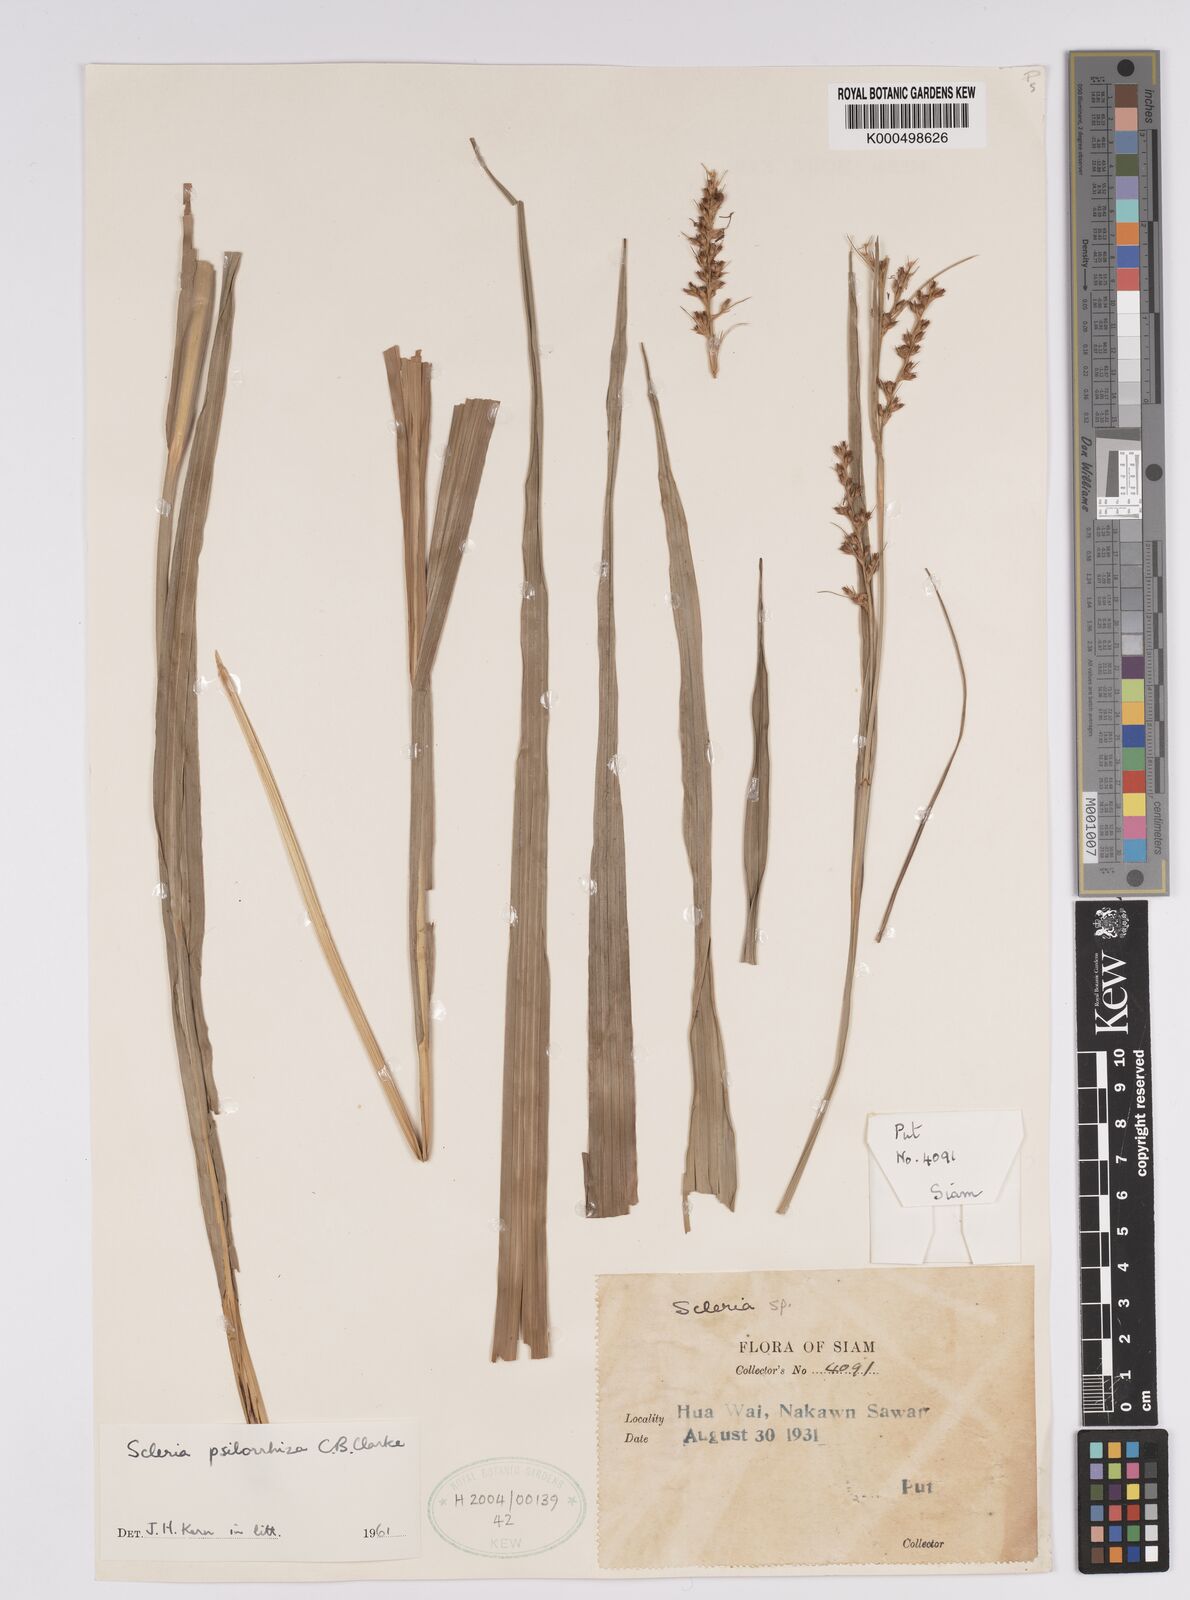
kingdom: Plantae
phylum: Tracheophyta
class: Liliopsida
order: Poales
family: Cyperaceae
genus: Scleria
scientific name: Scleria psilorrhiza
